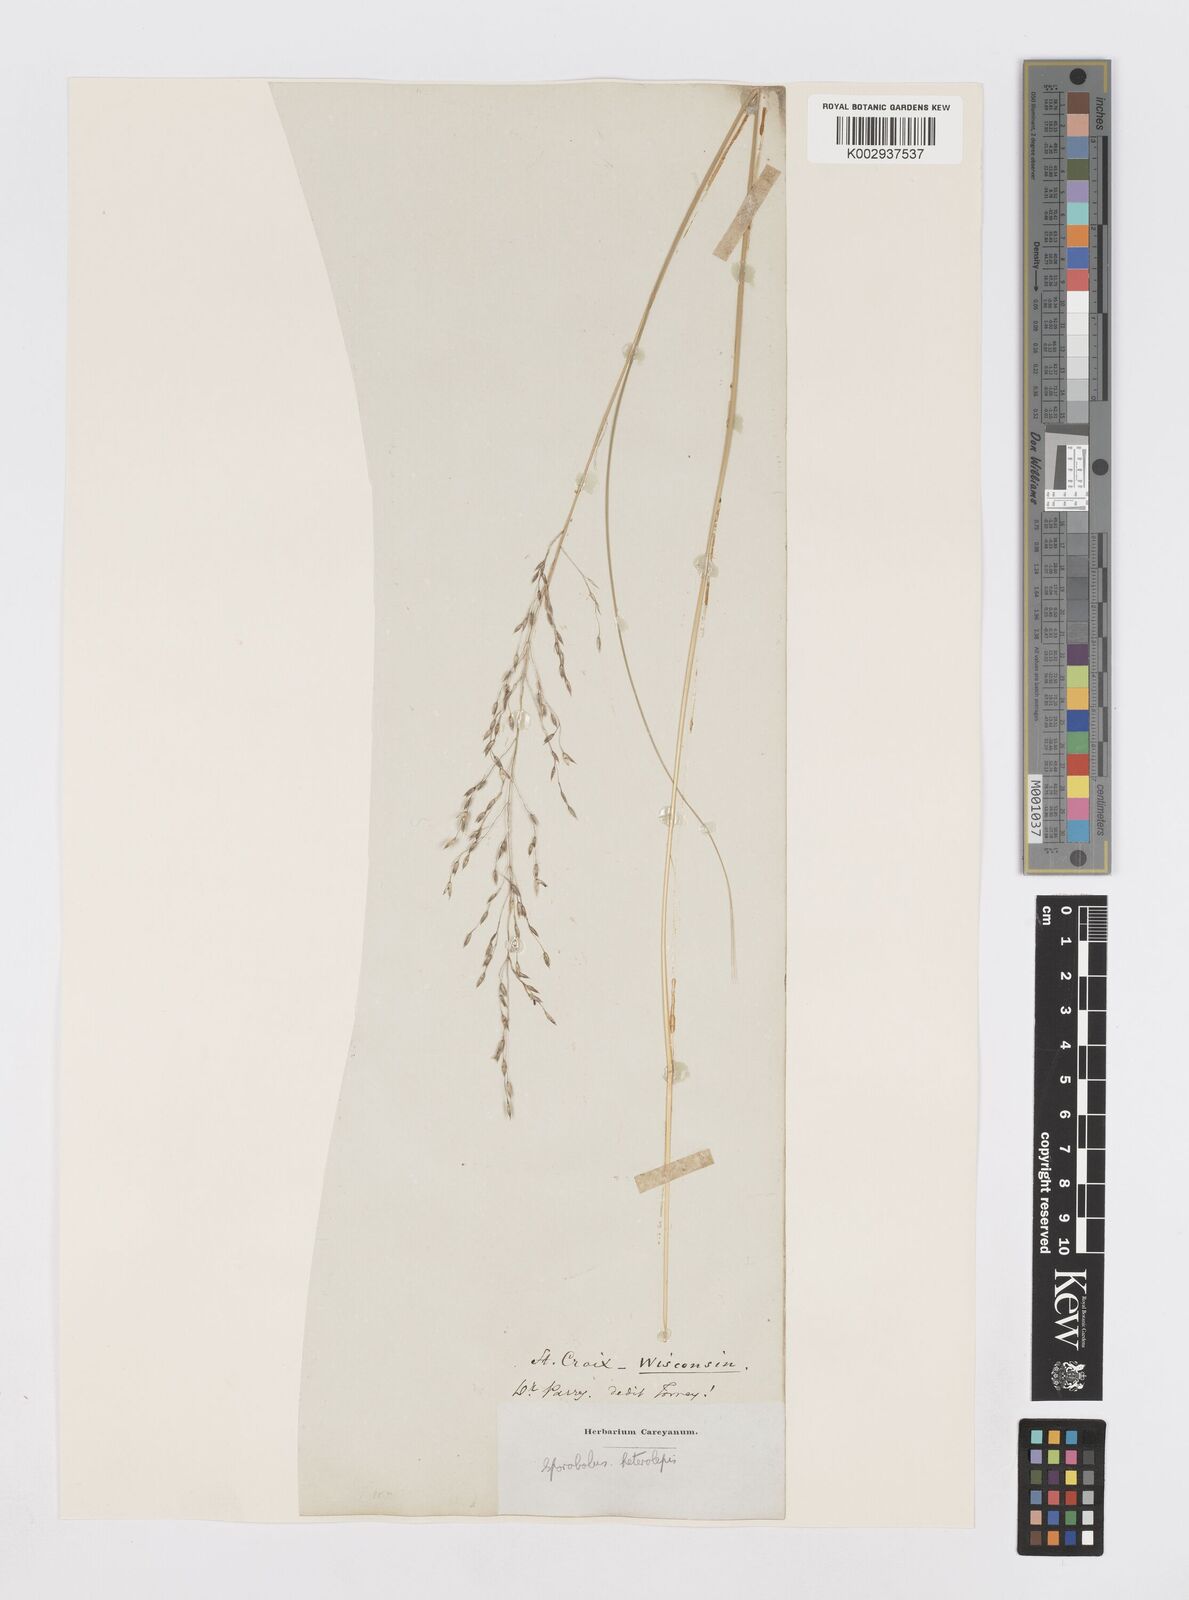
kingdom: Plantae
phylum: Tracheophyta
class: Liliopsida
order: Poales
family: Poaceae
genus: Sporobolus
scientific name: Sporobolus heterolepis
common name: Prairie dropseed
